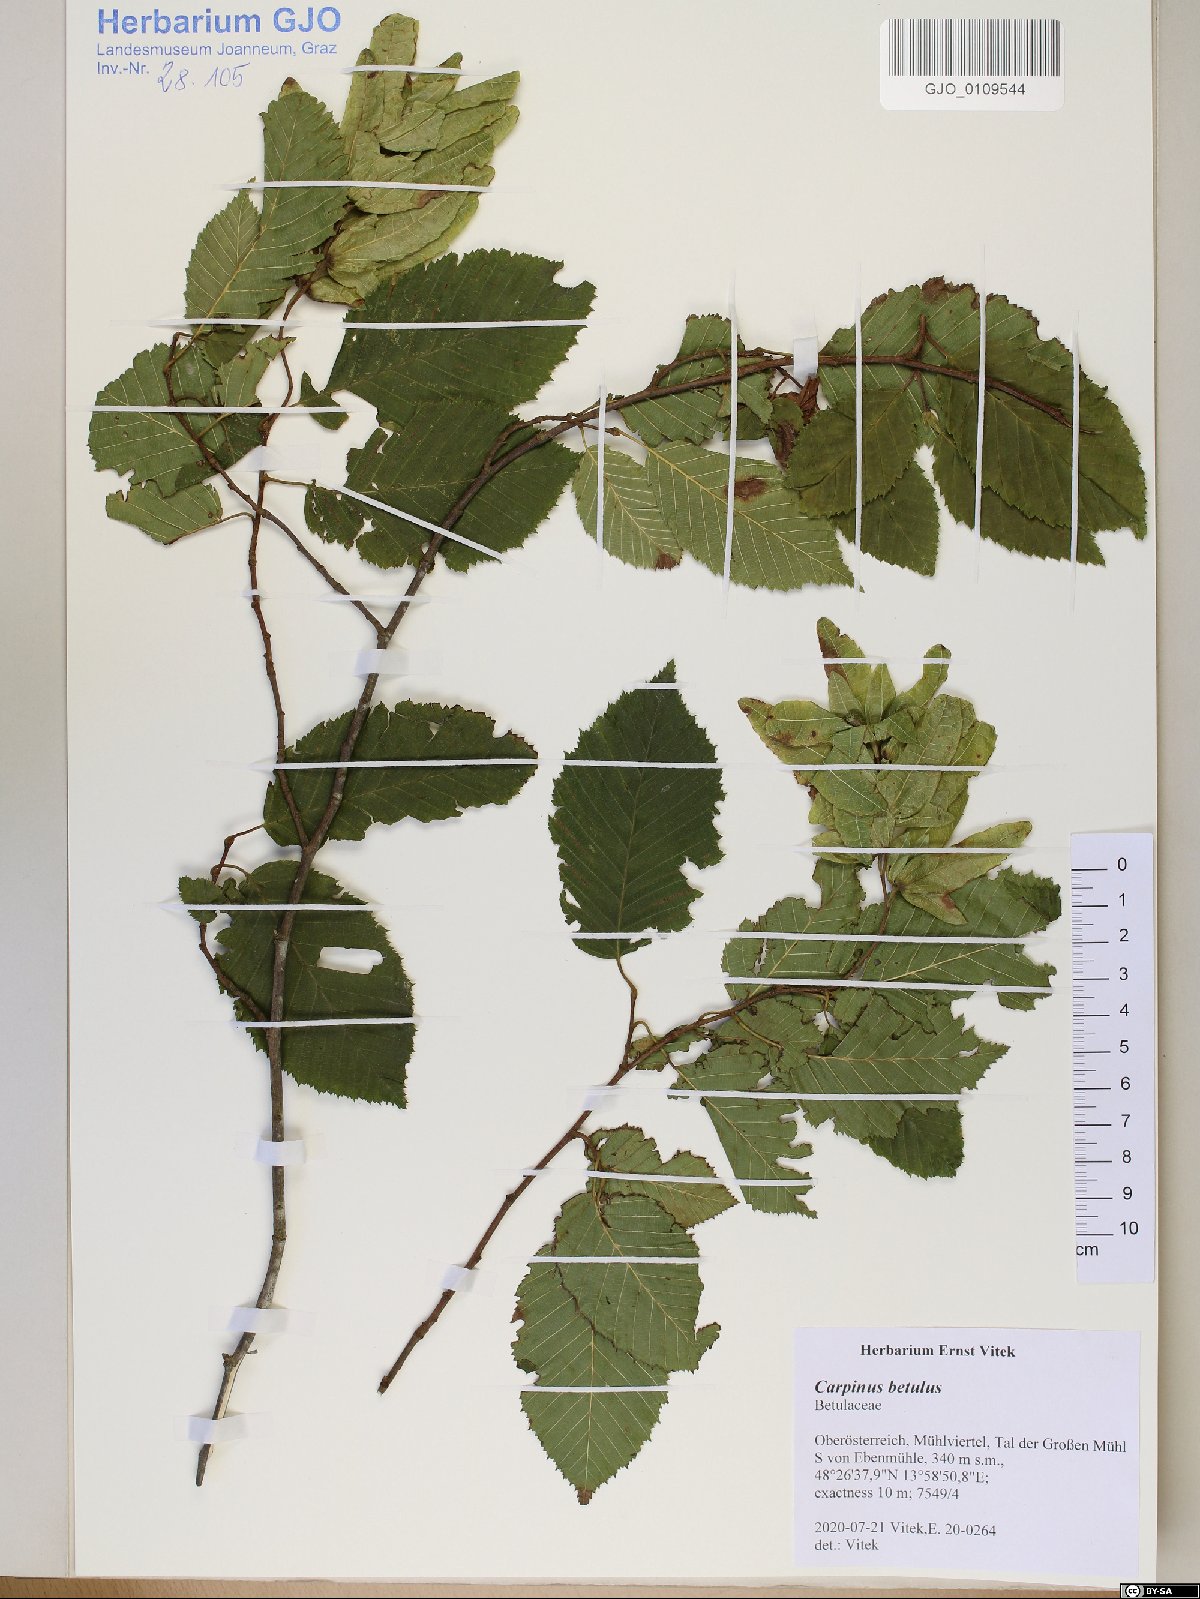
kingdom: Plantae
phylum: Tracheophyta
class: Magnoliopsida
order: Fagales
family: Betulaceae
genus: Carpinus
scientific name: Carpinus betulus
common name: Hornbeam
